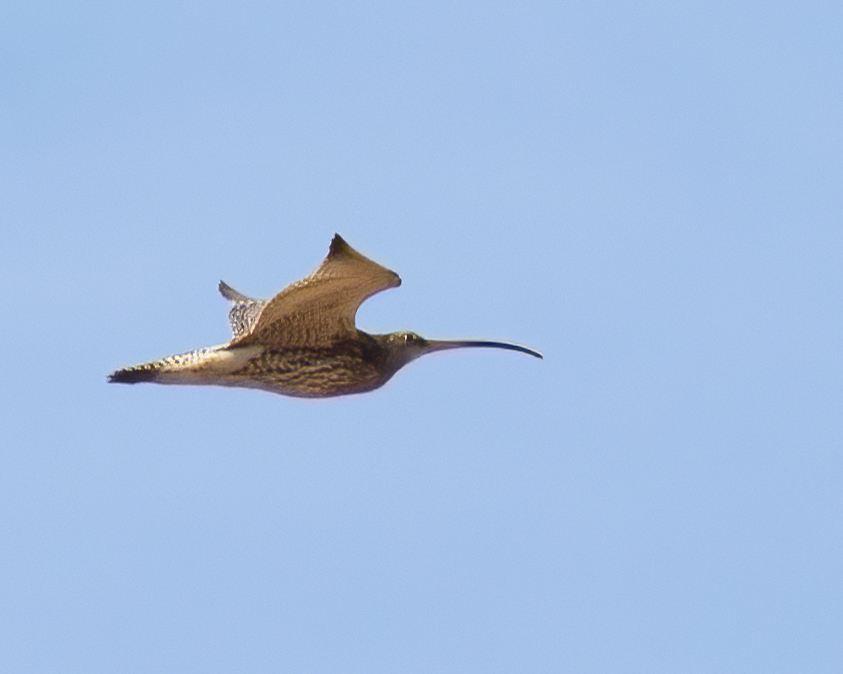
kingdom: Animalia
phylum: Chordata
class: Aves
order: Charadriiformes
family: Scolopacidae
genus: Numenius
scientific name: Numenius arquata
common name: Storspove
